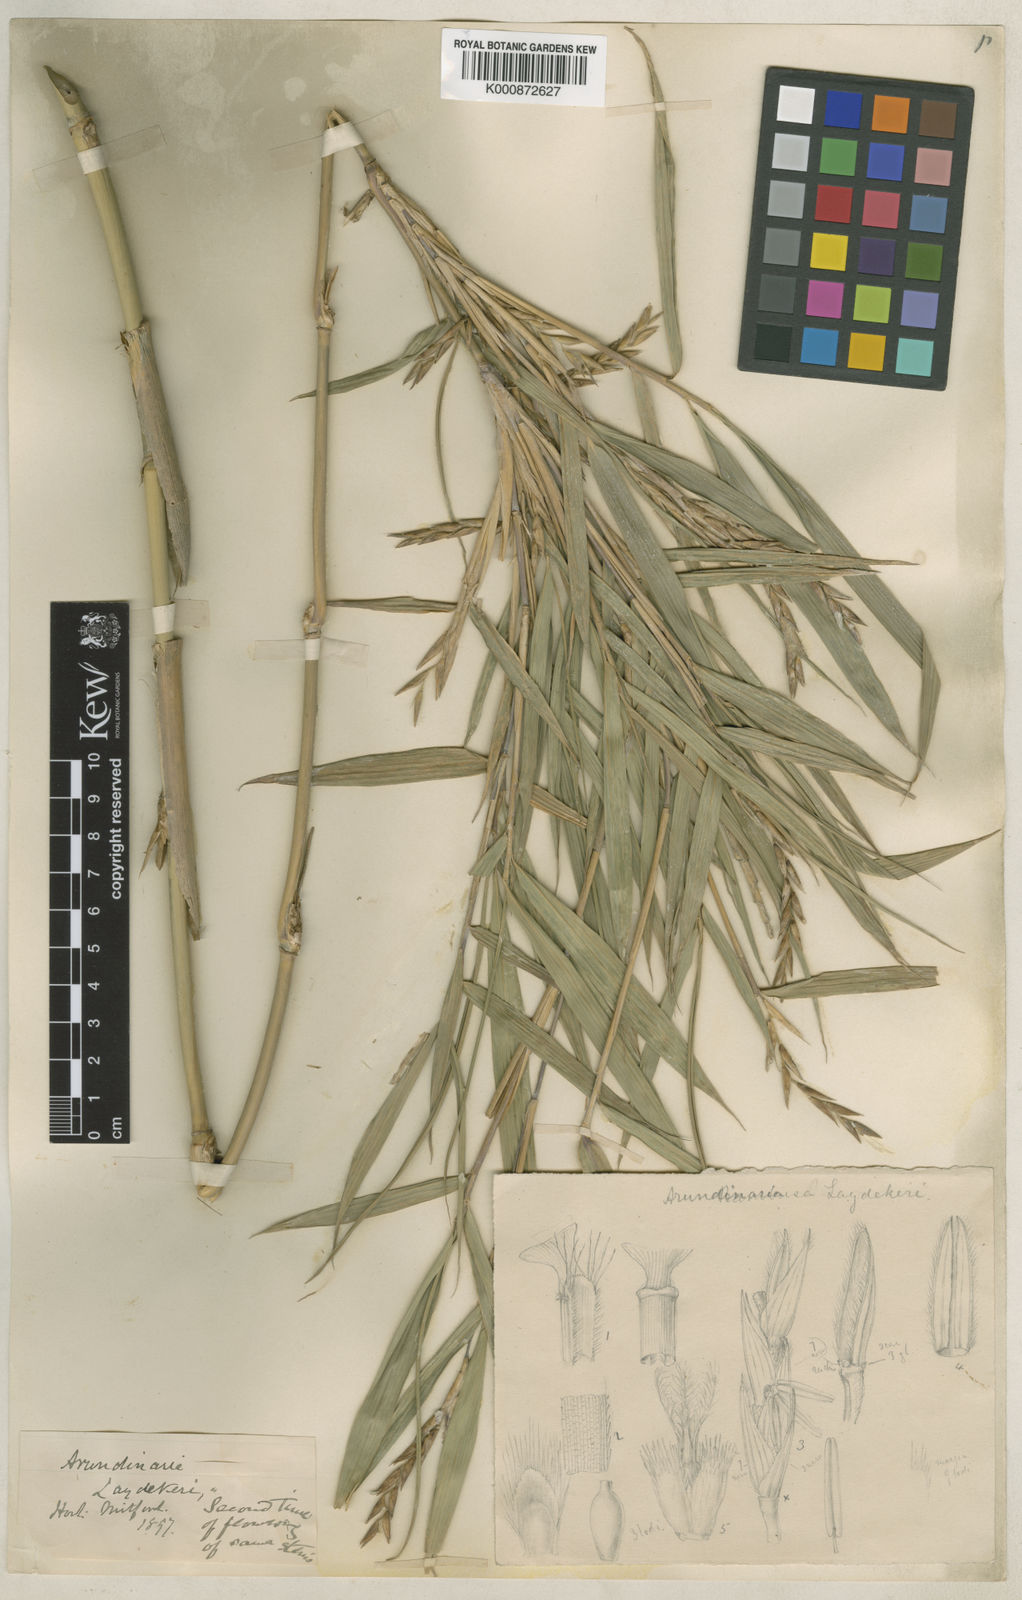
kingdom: Plantae
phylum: Tracheophyta
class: Liliopsida
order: Poales
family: Poaceae
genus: Pleioblastus
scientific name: Pleioblastus argenteostriatus
